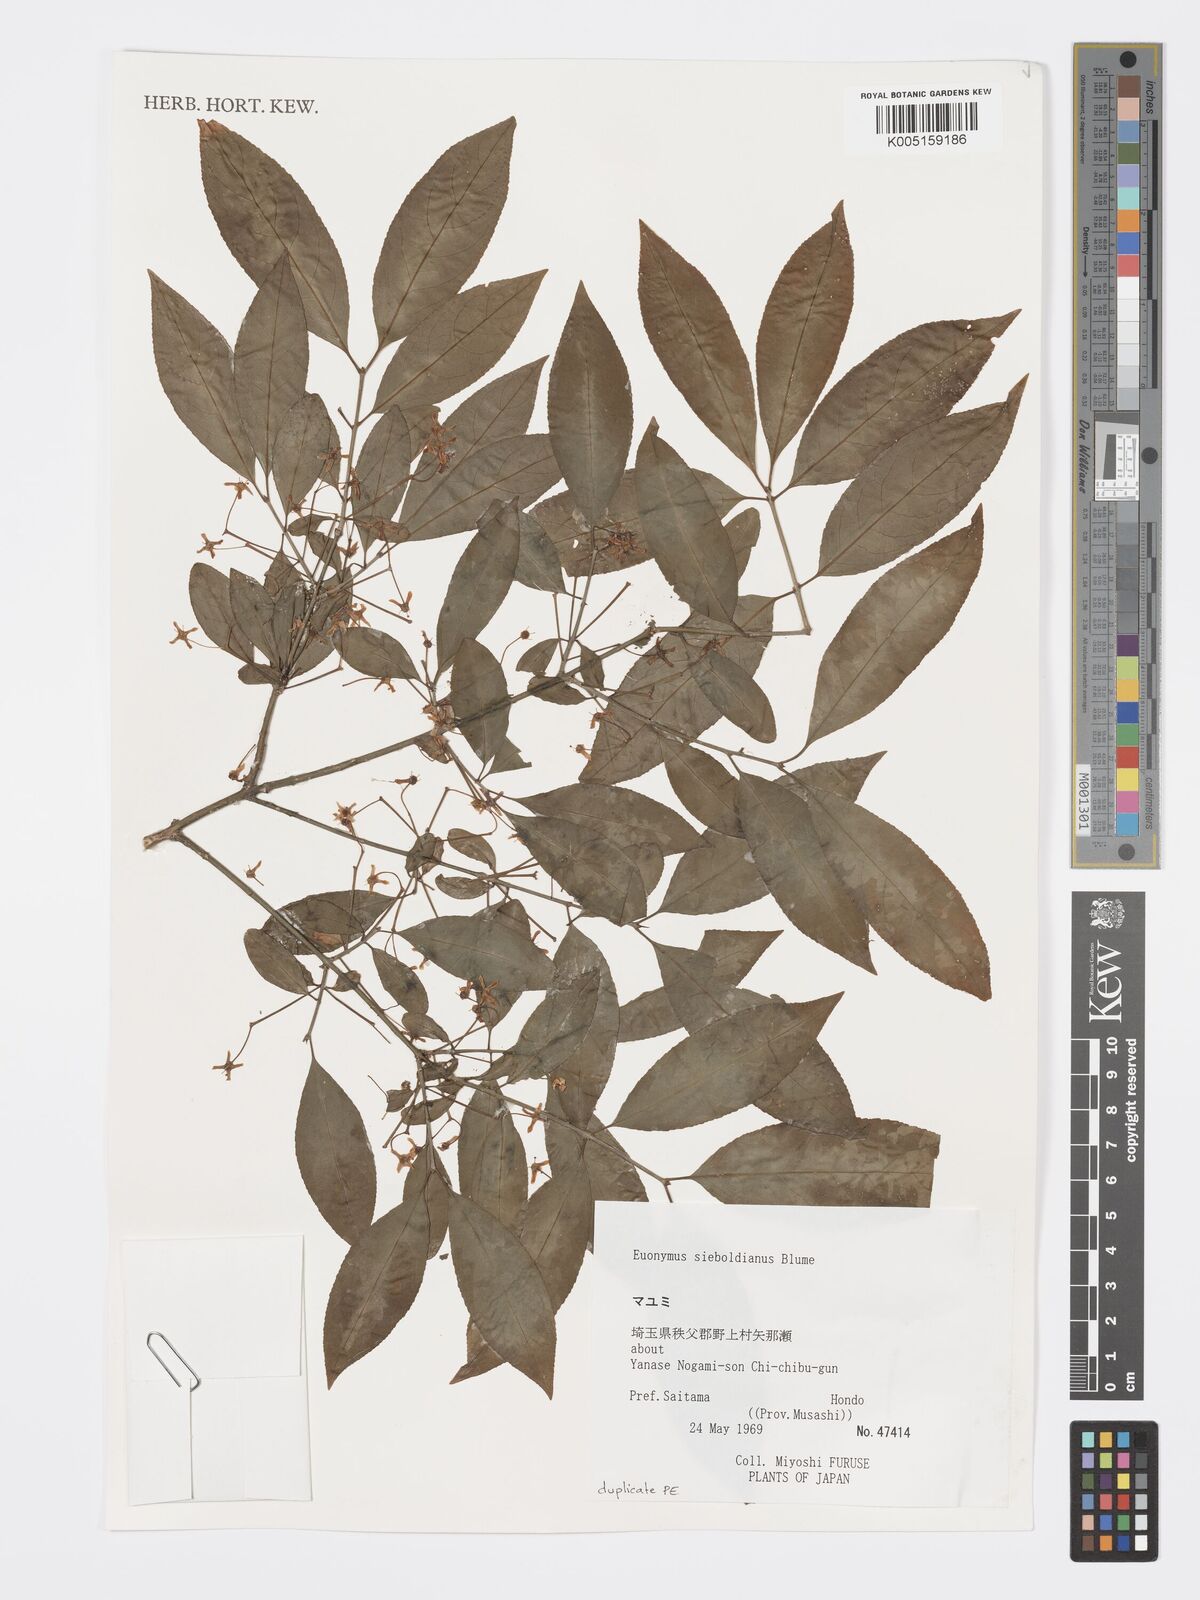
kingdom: Plantae
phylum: Tracheophyta
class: Magnoliopsida
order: Celastrales
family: Celastraceae
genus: Euonymus
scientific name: Euonymus hamiltonianus
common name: Hamilton's spindletree
